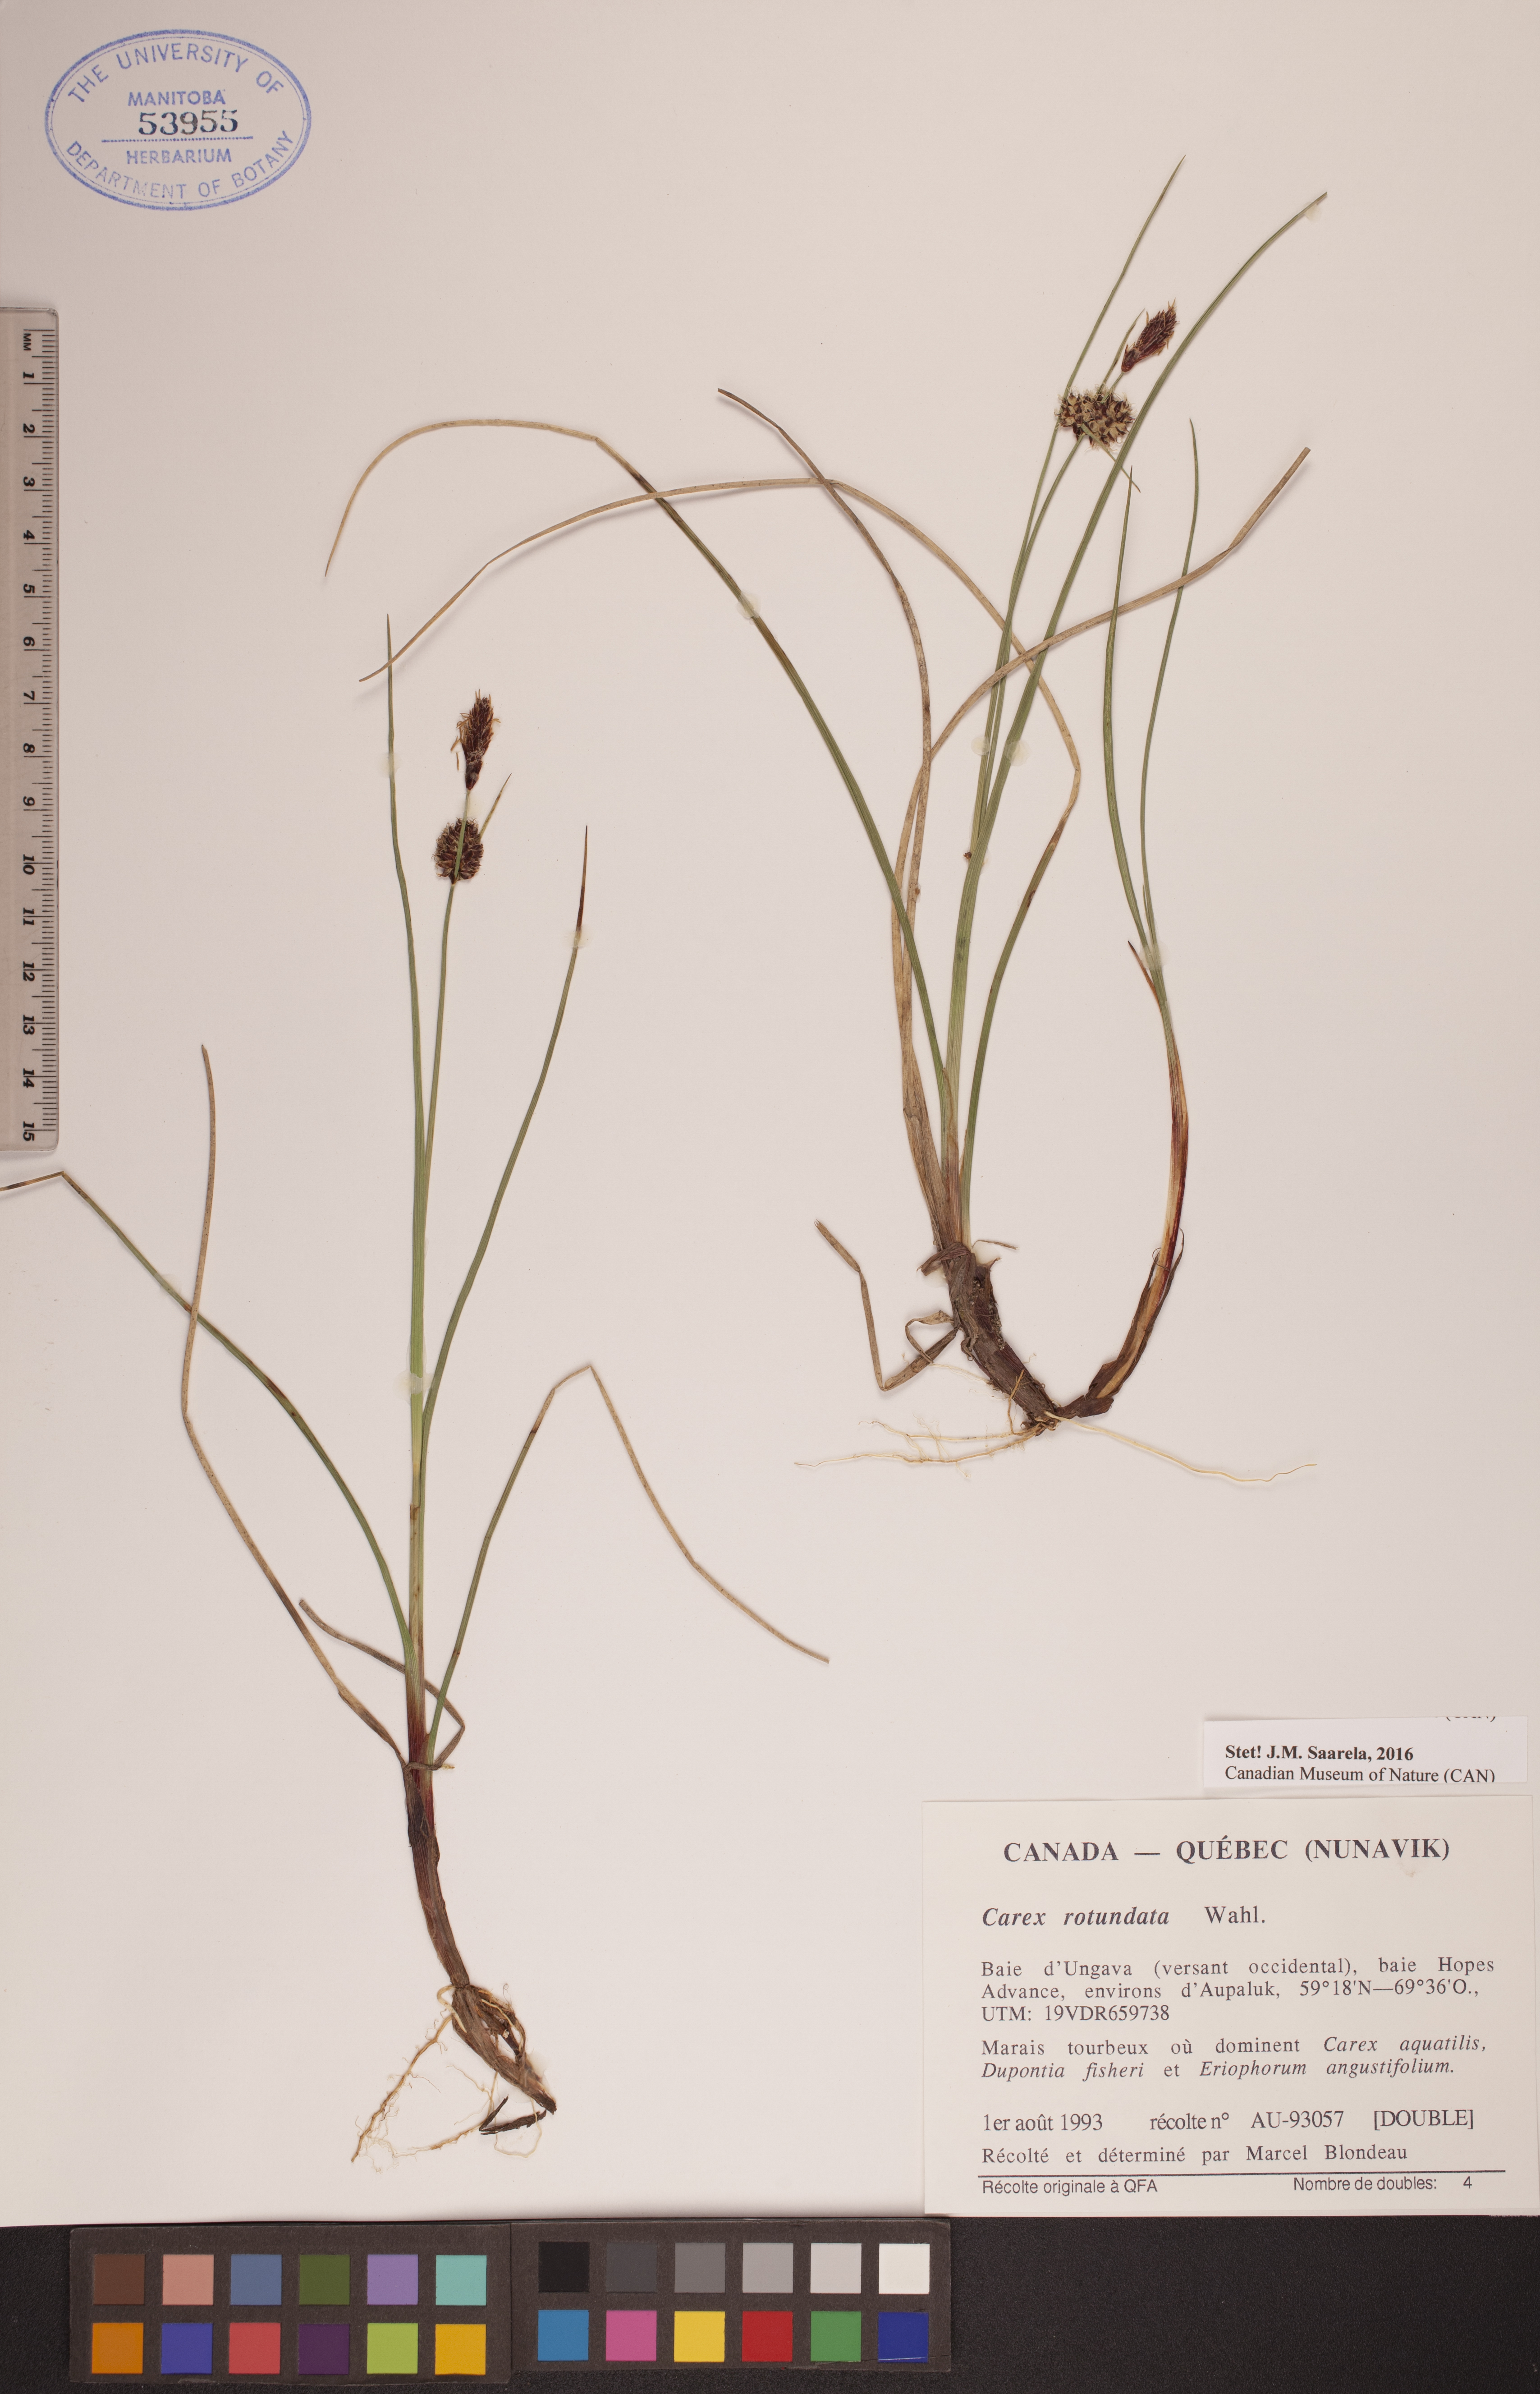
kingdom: Plantae
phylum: Tracheophyta
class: Liliopsida
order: Poales
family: Cyperaceae
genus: Carex
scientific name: Carex rotundata
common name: Round-fruited sedge
